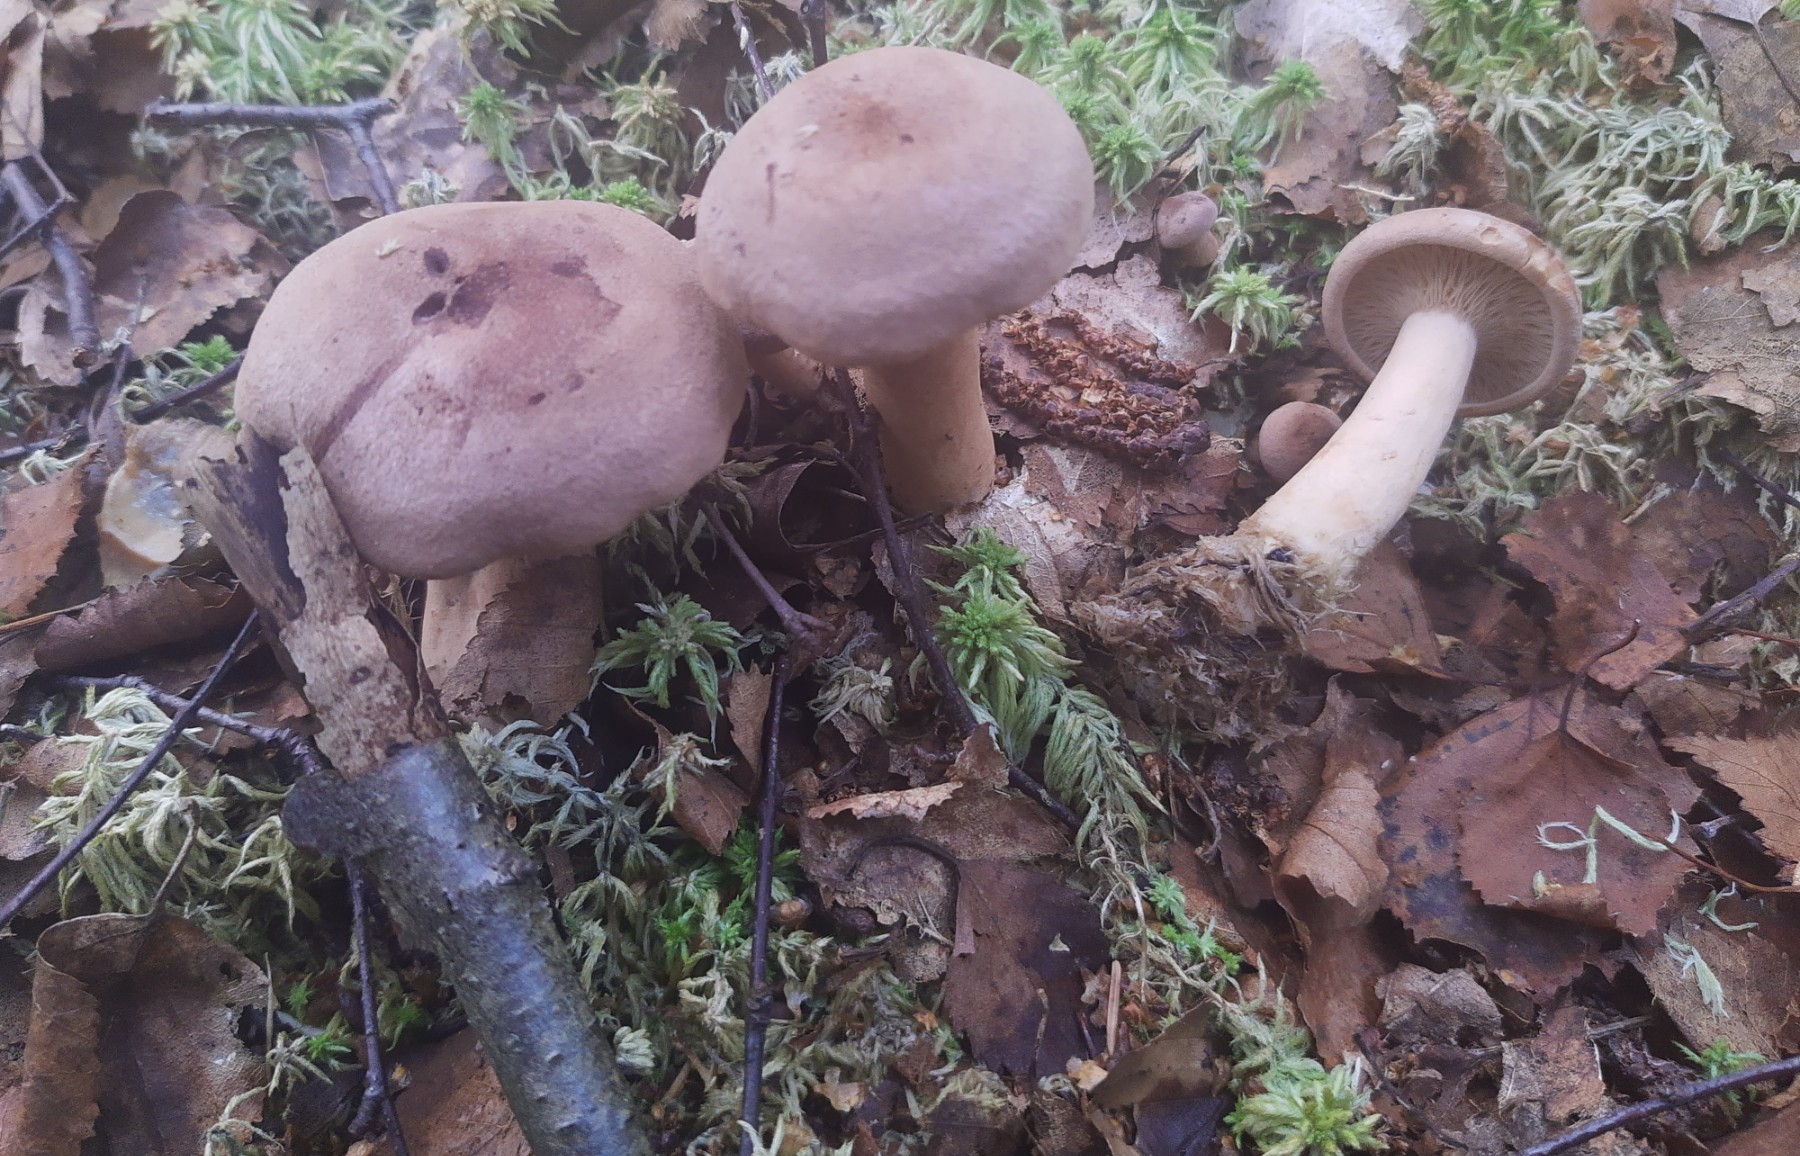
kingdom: Fungi
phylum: Basidiomycota
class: Agaricomycetes
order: Russulales
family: Russulaceae
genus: Lactarius
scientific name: Lactarius helvus
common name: mose-mælkehat
